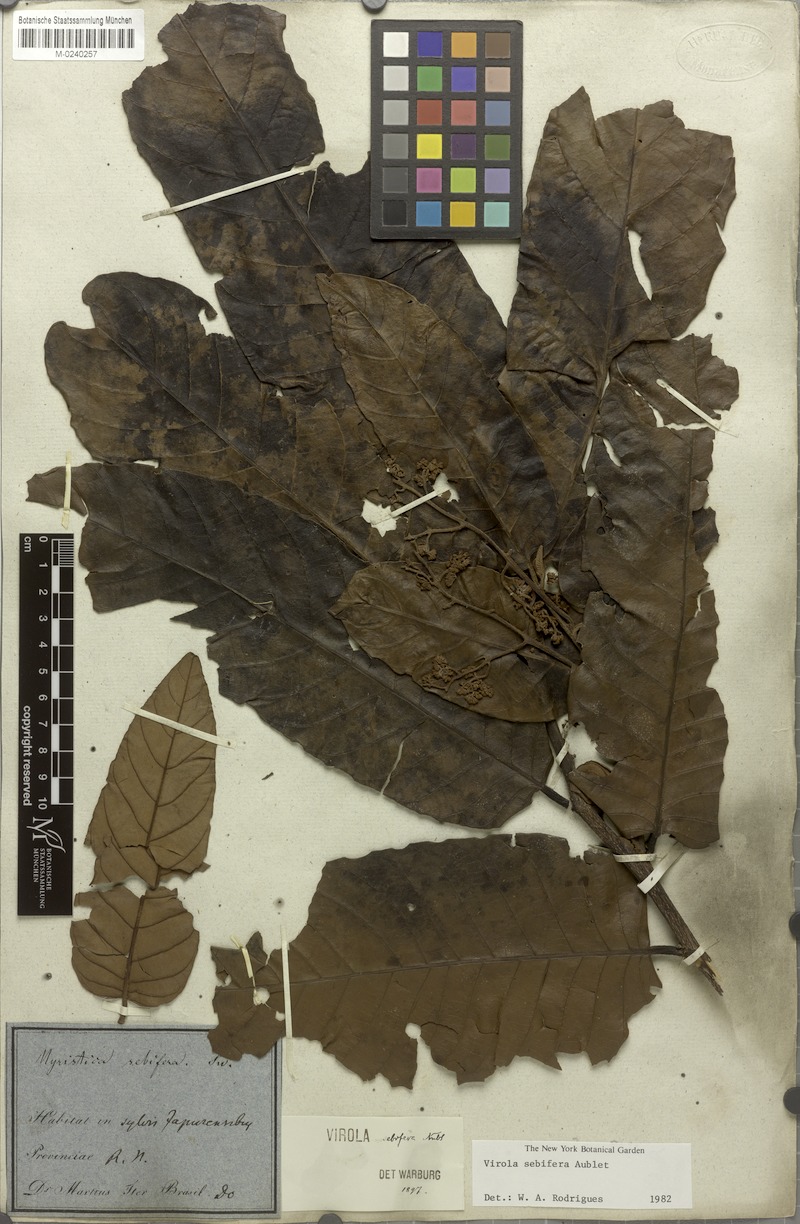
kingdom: Plantae
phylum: Tracheophyta
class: Magnoliopsida
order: Magnoliales
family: Myristicaceae
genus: Virola
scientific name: Virola sebifera
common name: Red ucuuba
